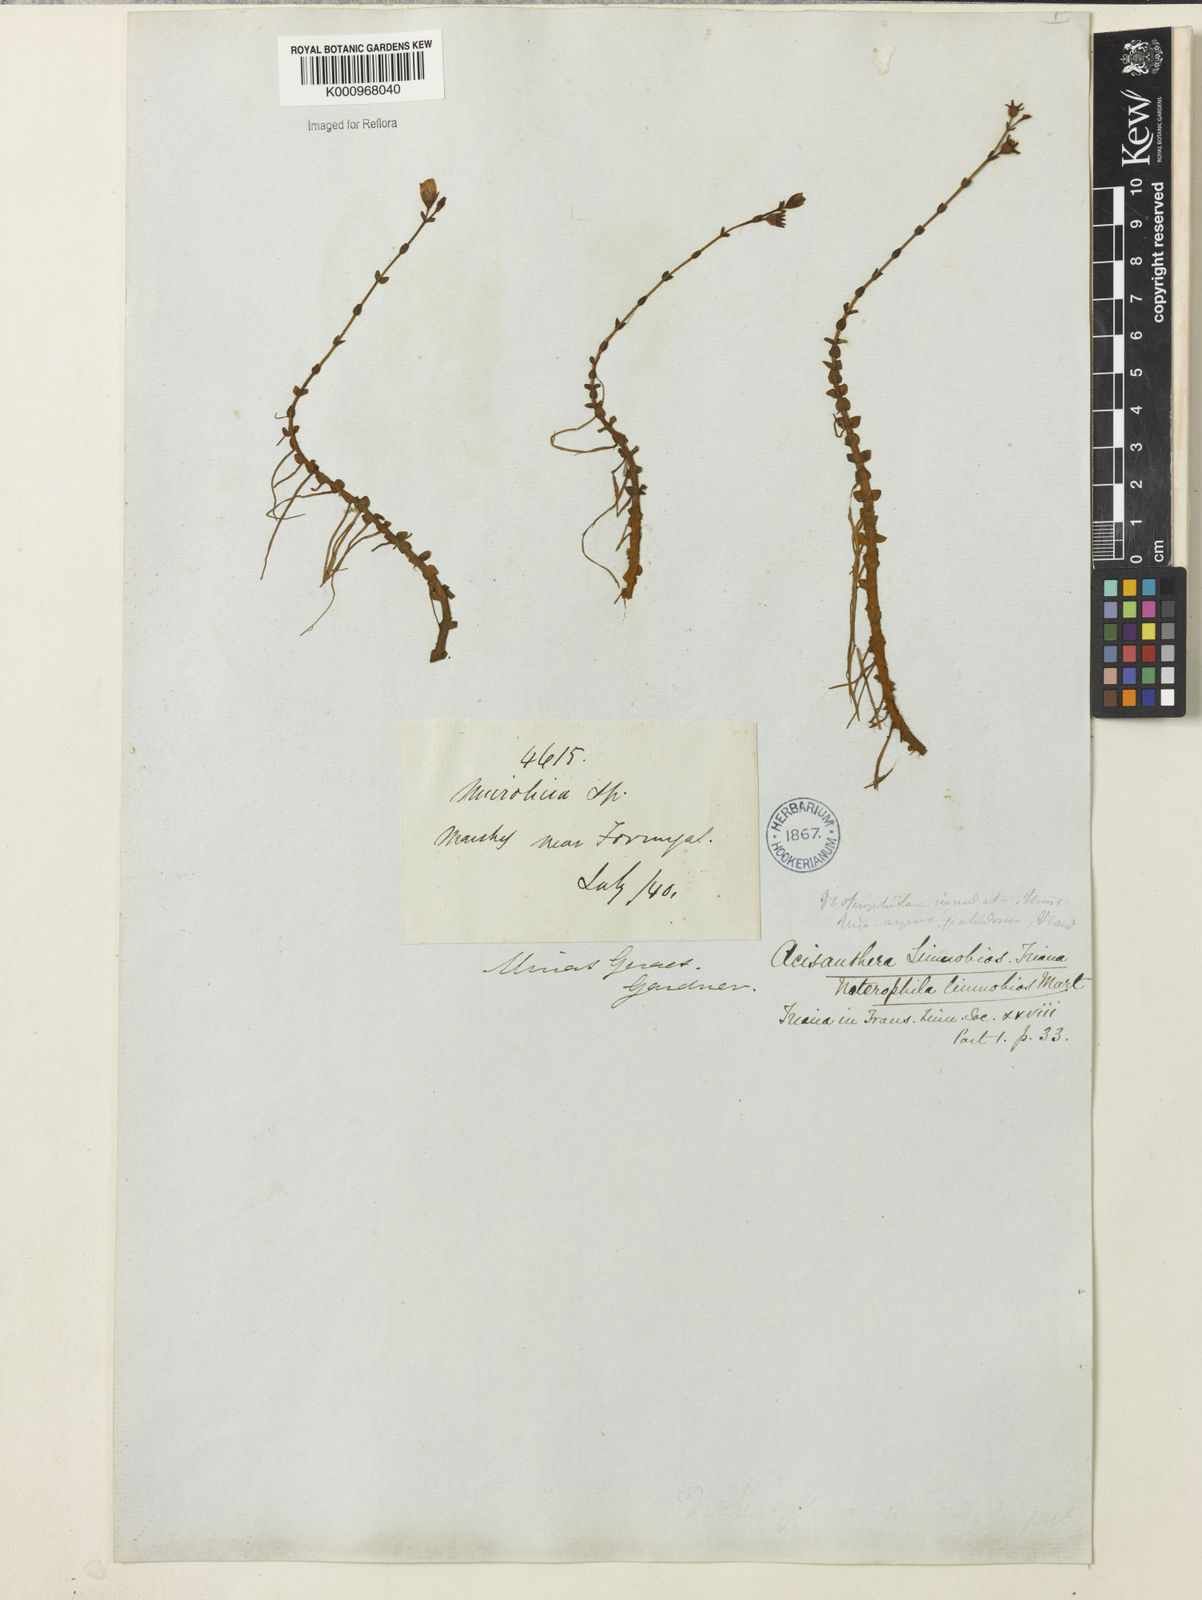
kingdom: Plantae
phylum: Tracheophyta
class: Magnoliopsida
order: Myrtales
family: Melastomataceae
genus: Acisanthera
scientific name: Acisanthera
